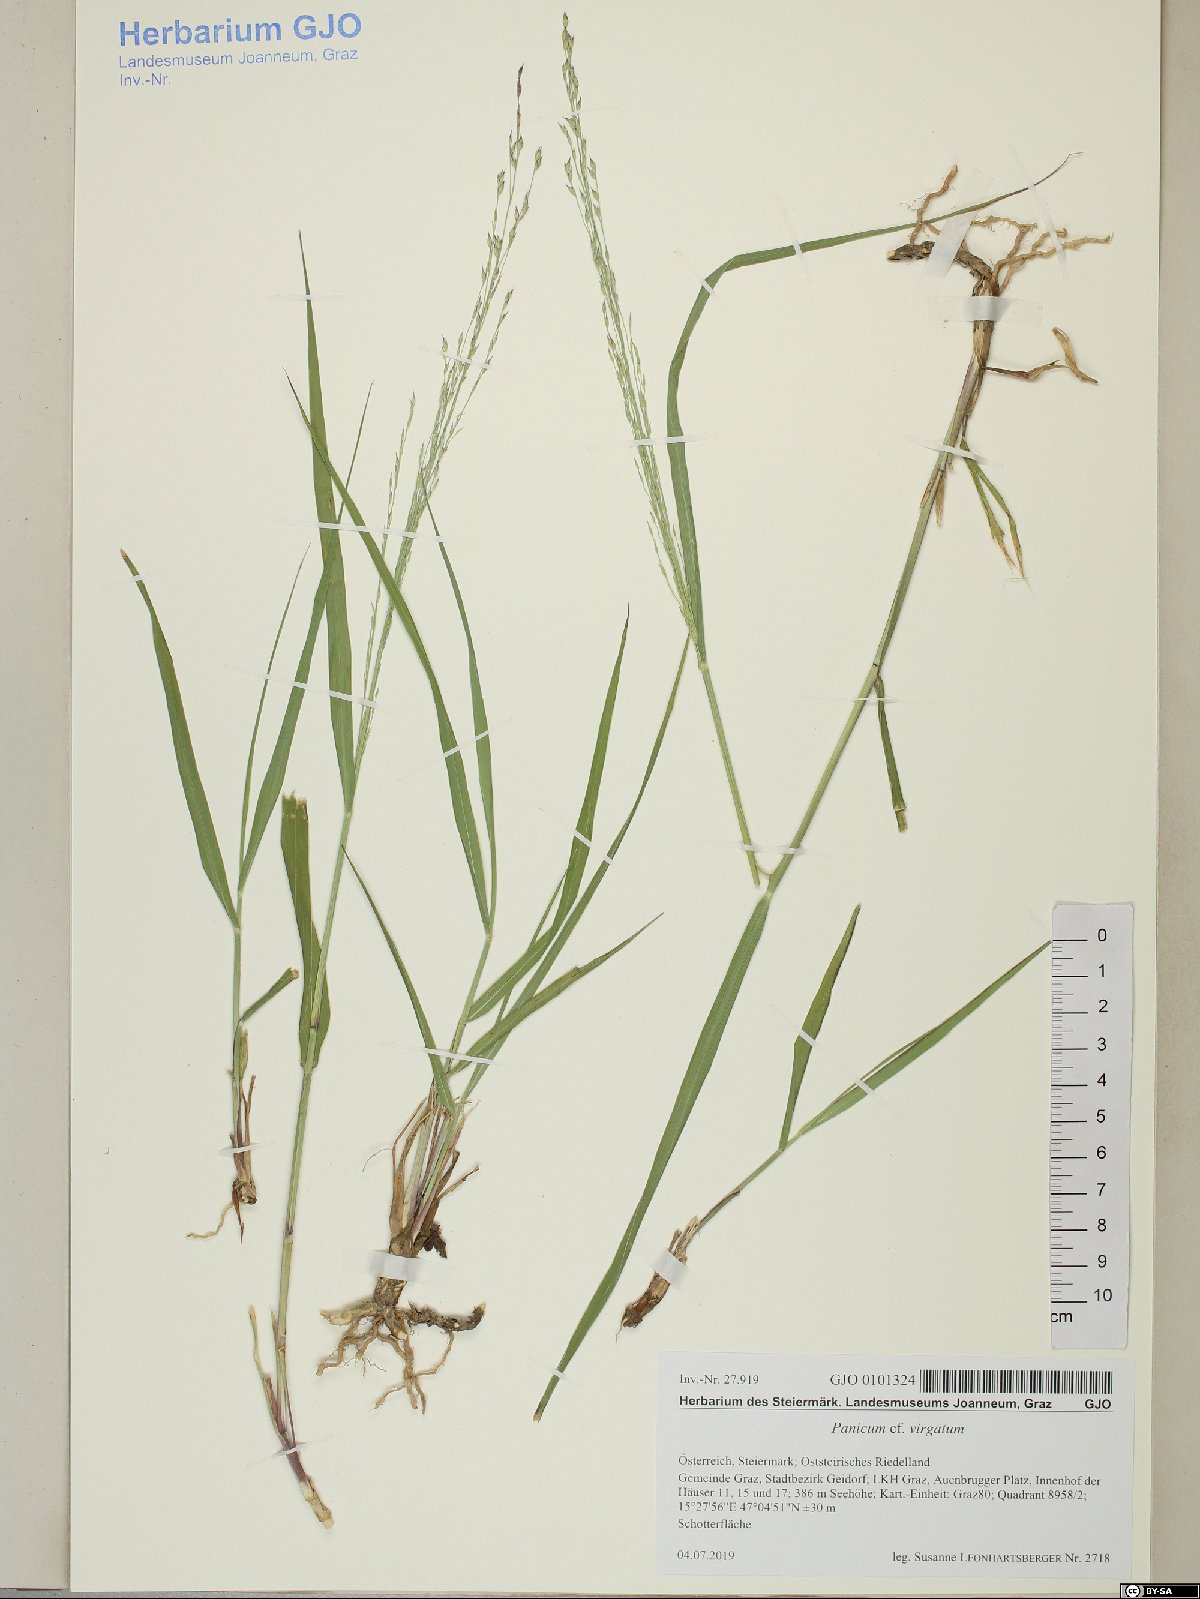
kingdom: Plantae
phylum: Tracheophyta
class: Liliopsida
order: Poales
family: Poaceae
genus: Panicum
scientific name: Panicum virgatum
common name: Switchgrass
